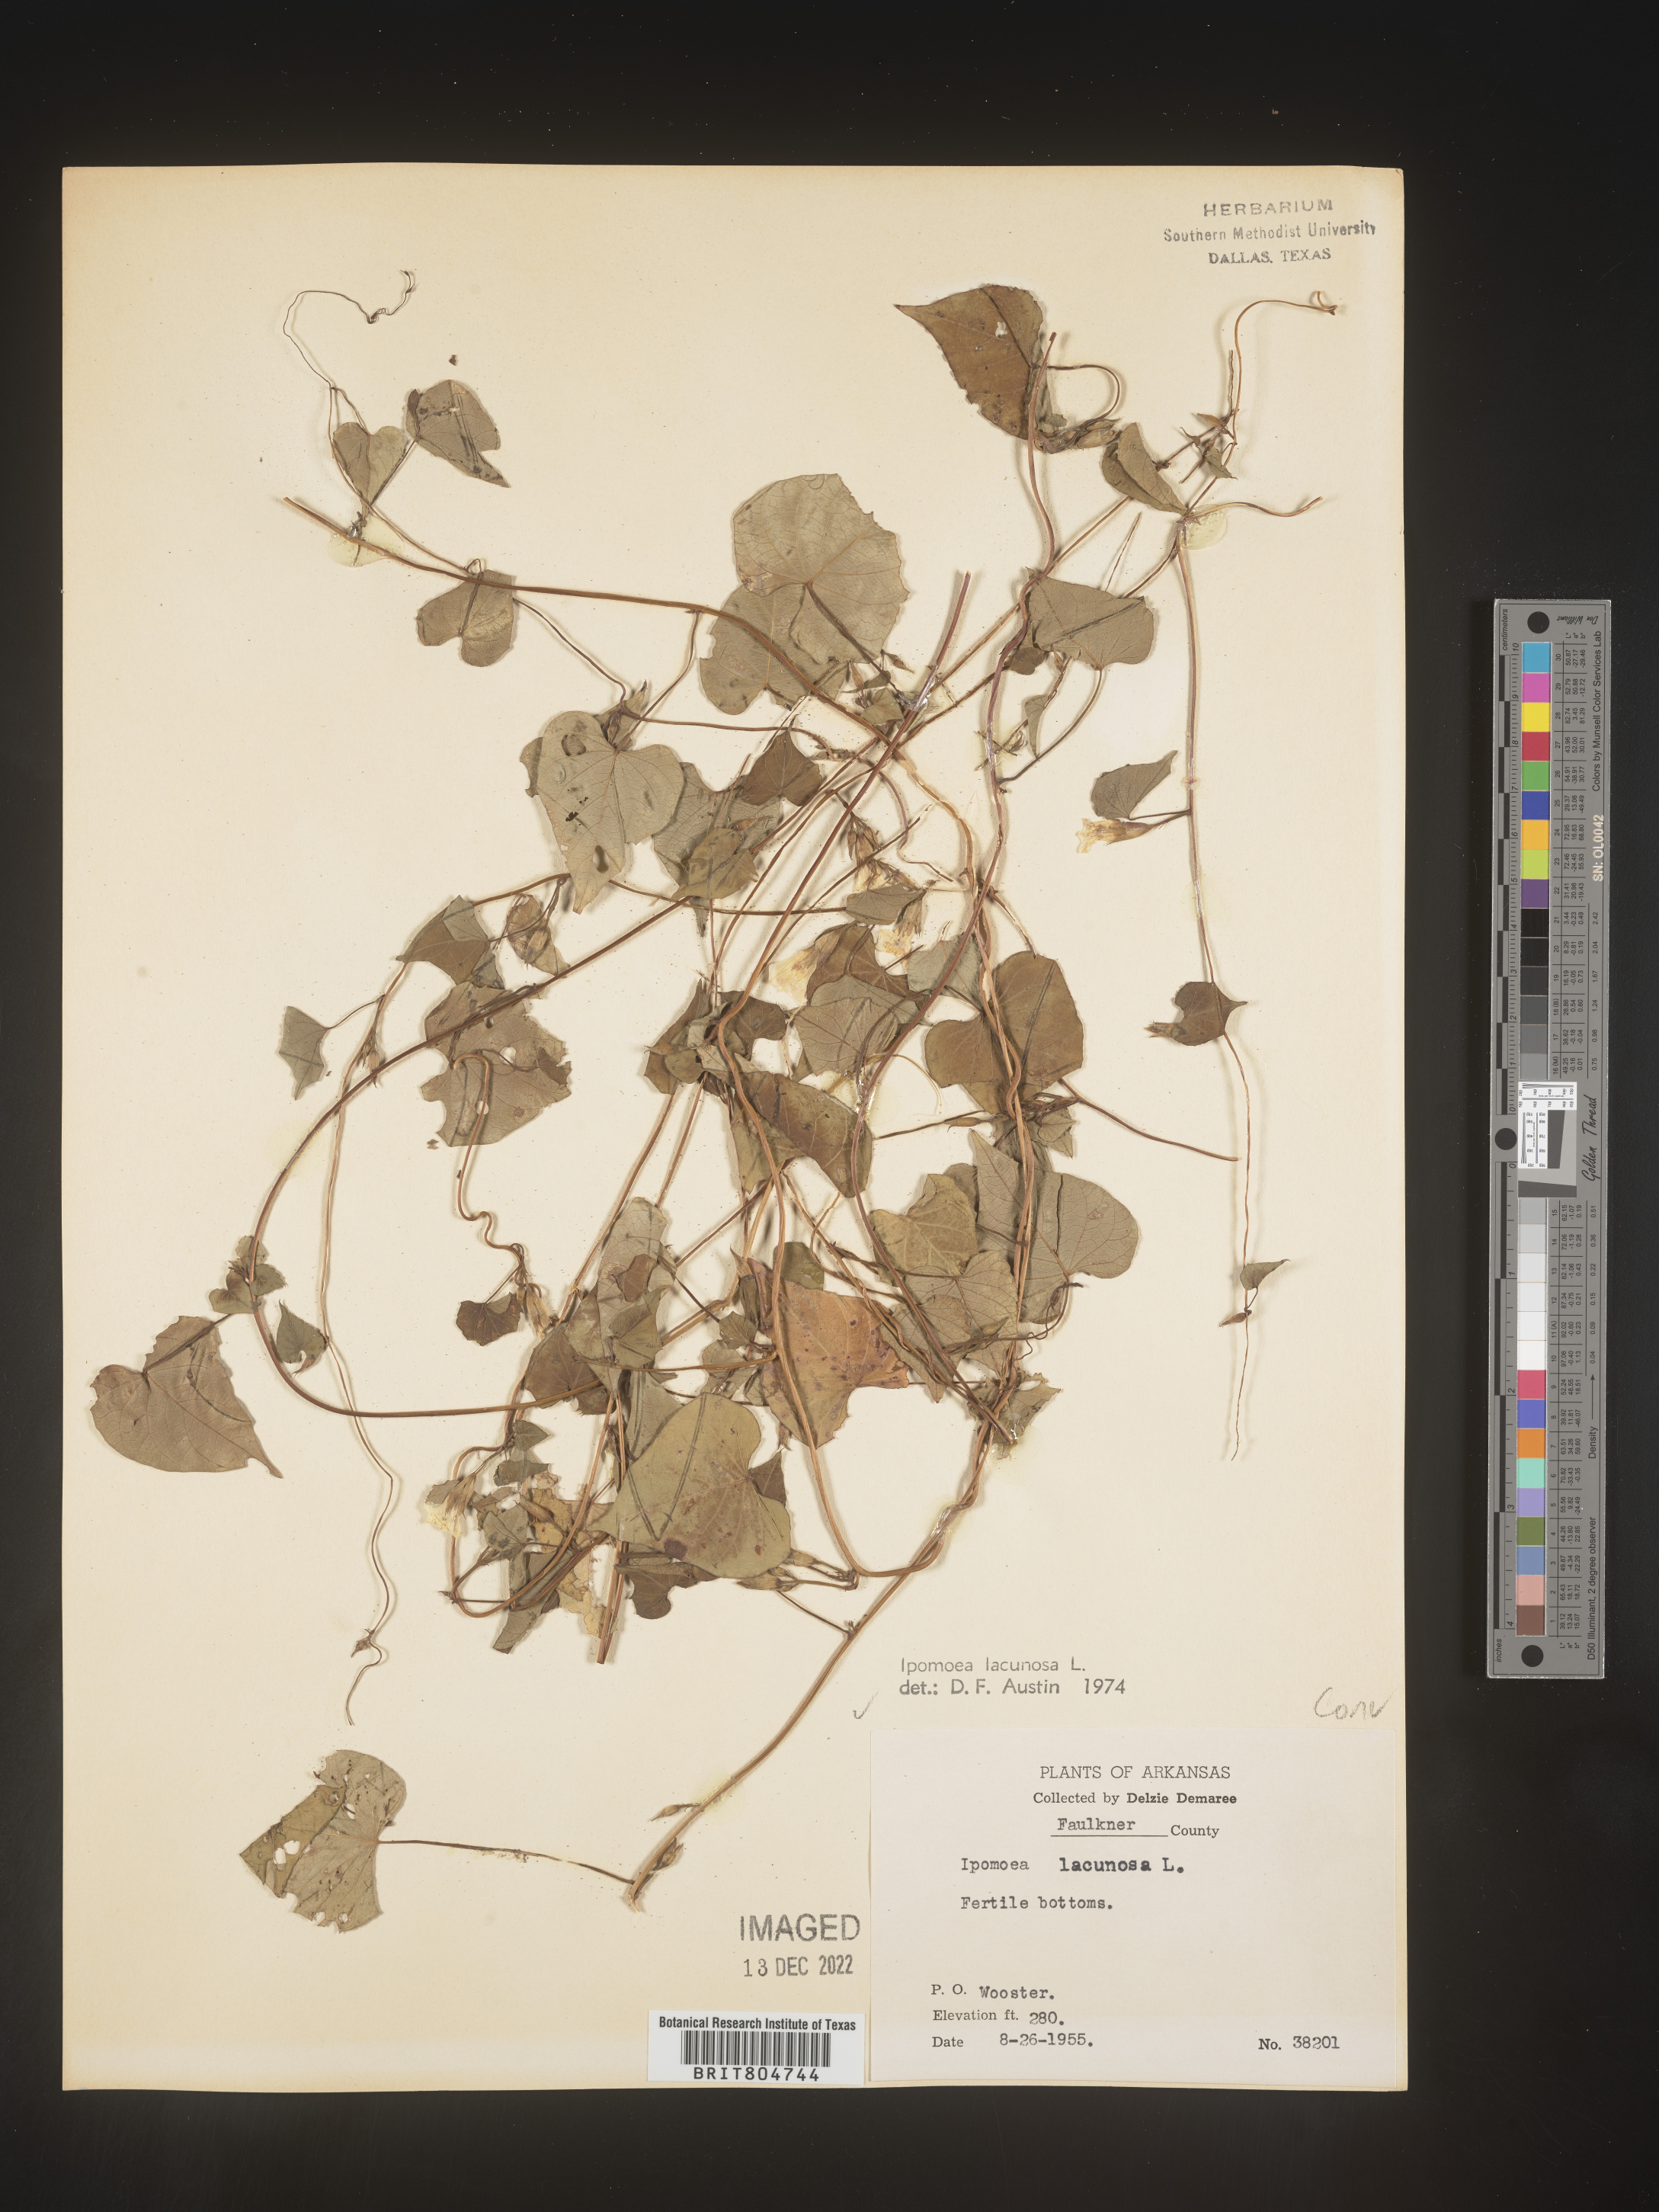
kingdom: Plantae
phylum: Tracheophyta
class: Magnoliopsida
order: Solanales
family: Convolvulaceae
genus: Ipomoea
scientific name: Ipomoea lacunosa
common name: White morning-glory
